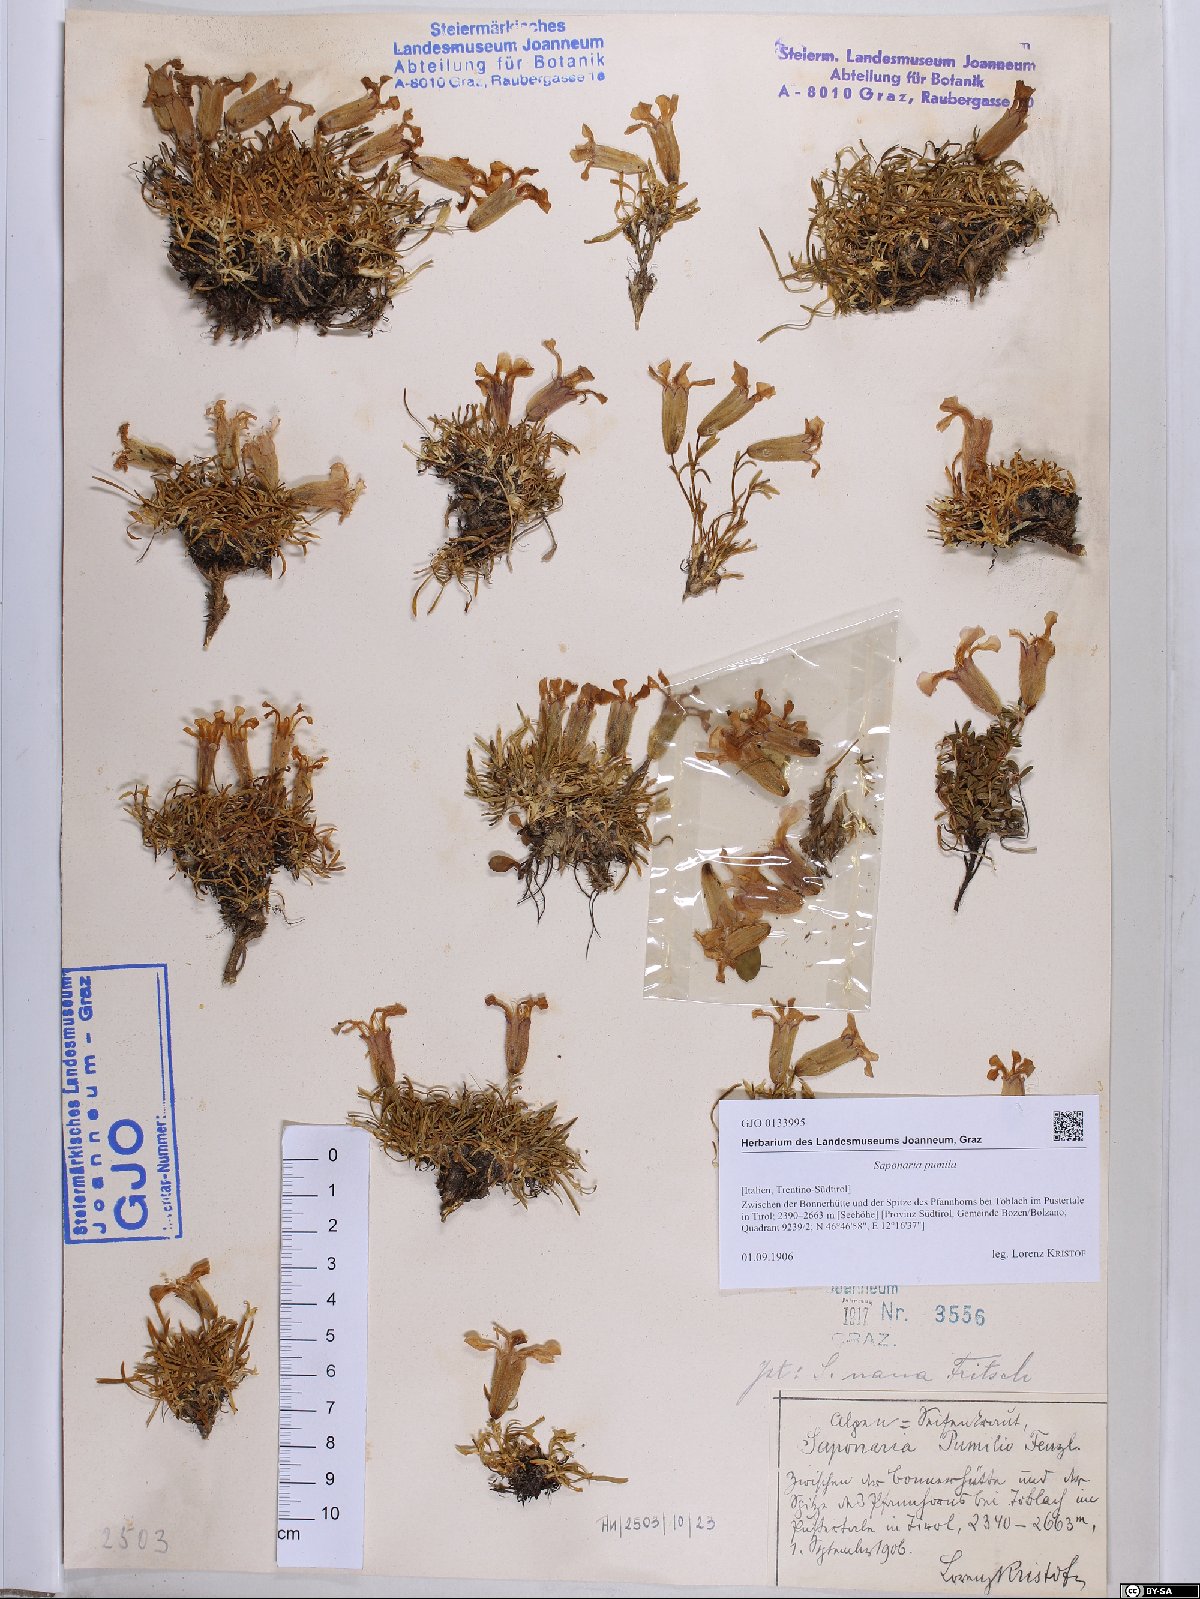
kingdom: Plantae
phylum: Tracheophyta
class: Magnoliopsida
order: Caryophyllales
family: Caryophyllaceae
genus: Saponaria
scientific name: Saponaria pumila
